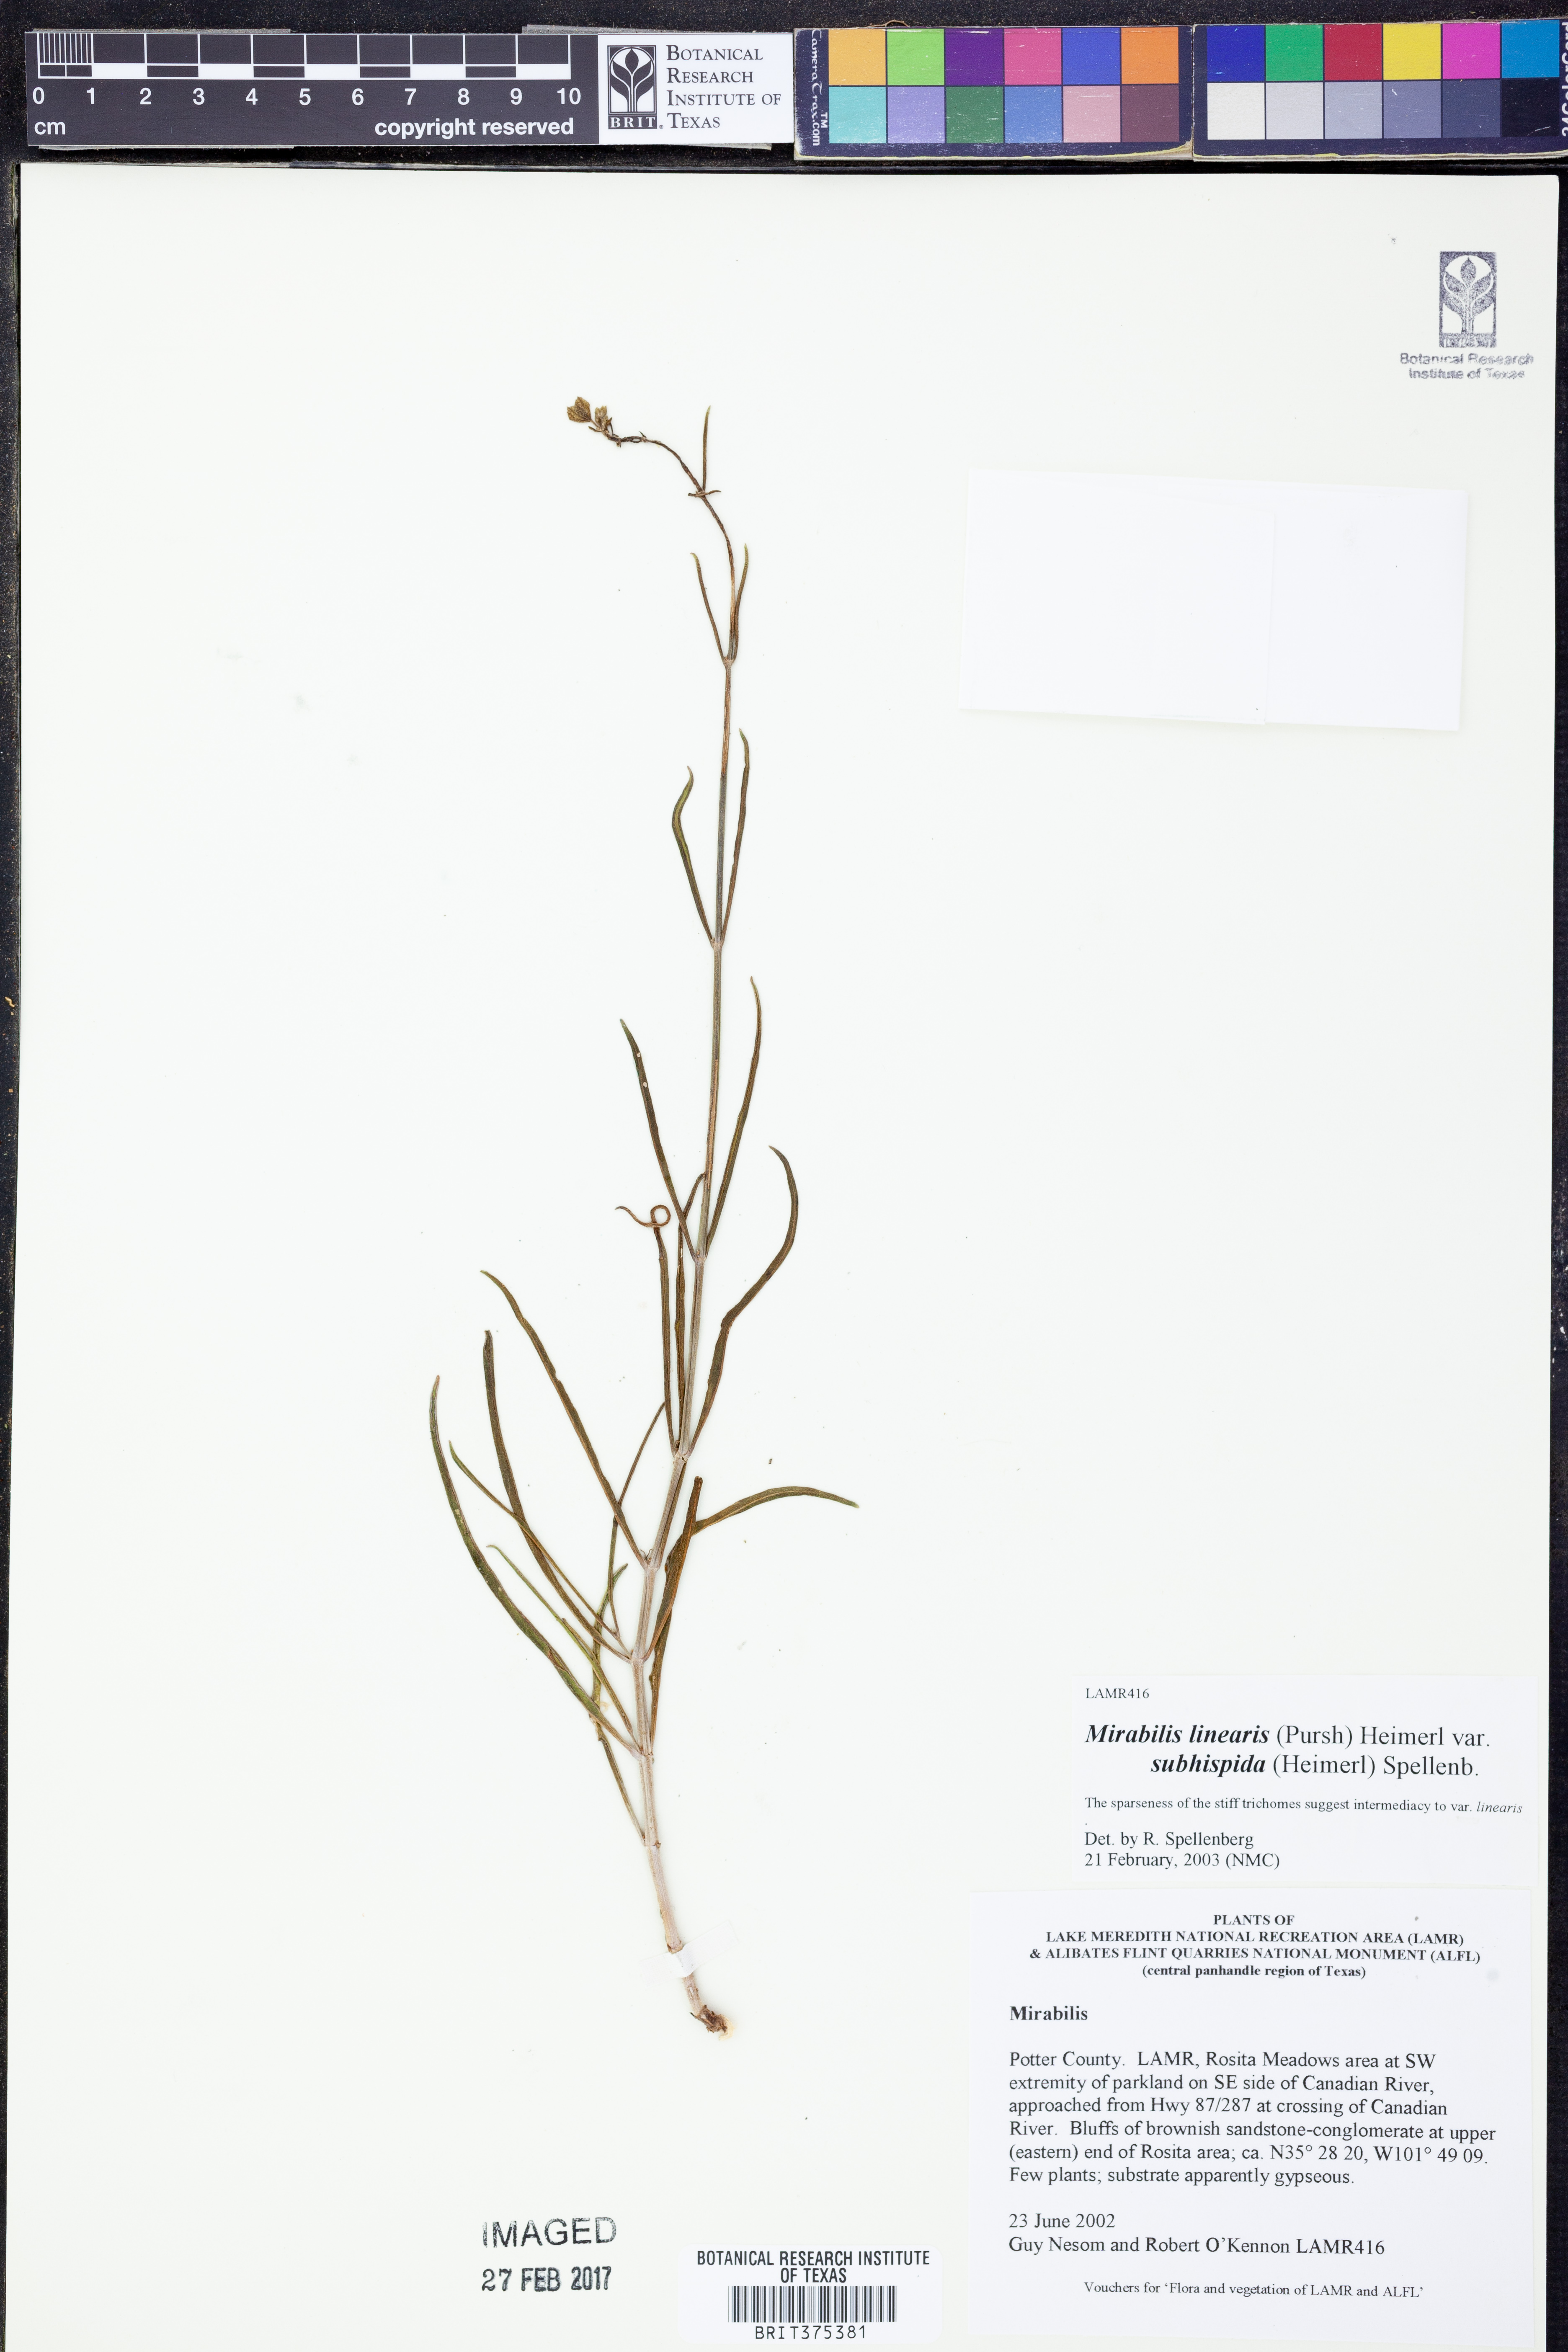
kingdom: Plantae
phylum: Tracheophyta
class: Magnoliopsida
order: Caryophyllales
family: Nyctaginaceae
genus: Mirabilis
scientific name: Mirabilis linearis
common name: Linear-leaved four-o'clock
